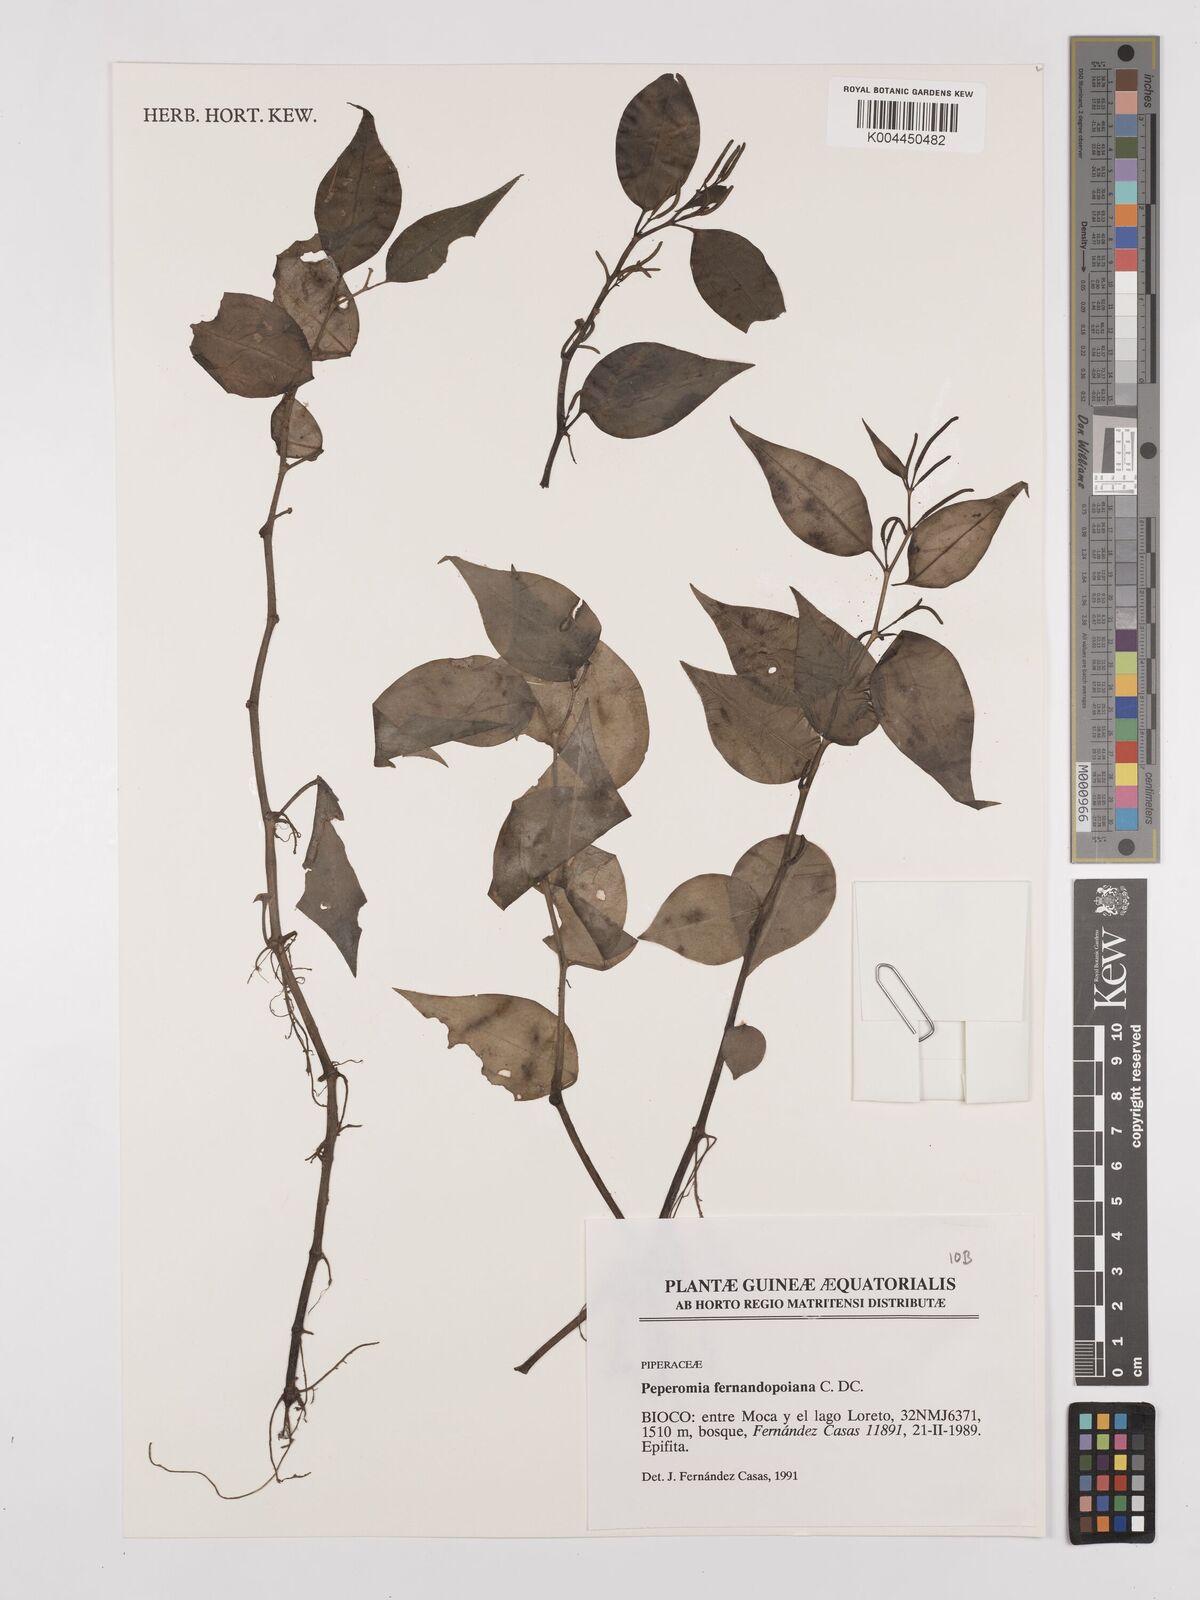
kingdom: Plantae
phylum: Tracheophyta
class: Magnoliopsida
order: Piperales
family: Piperaceae
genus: Peperomia
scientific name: Peperomia fernandopoiana
